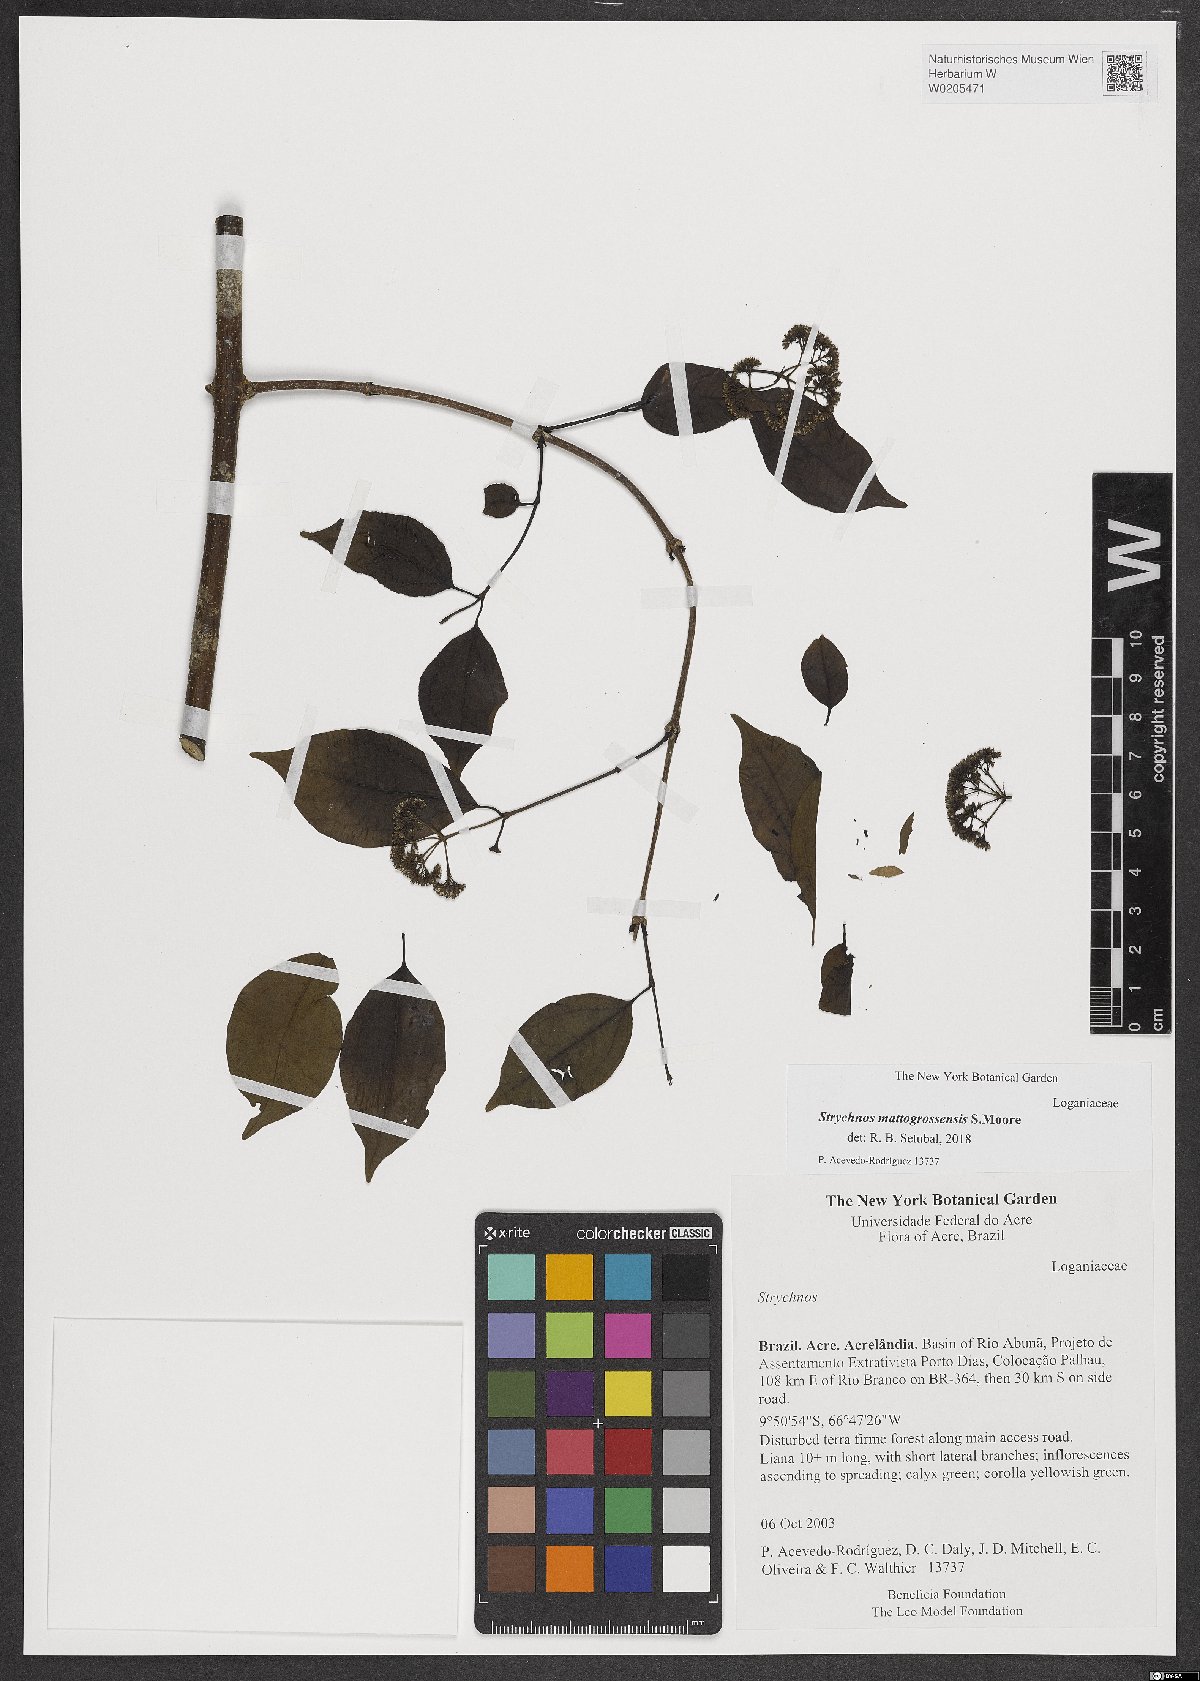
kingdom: Plantae
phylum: Tracheophyta
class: Magnoliopsida
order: Gentianales
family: Loganiaceae
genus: Strychnos
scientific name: Strychnos mattogrossensis
